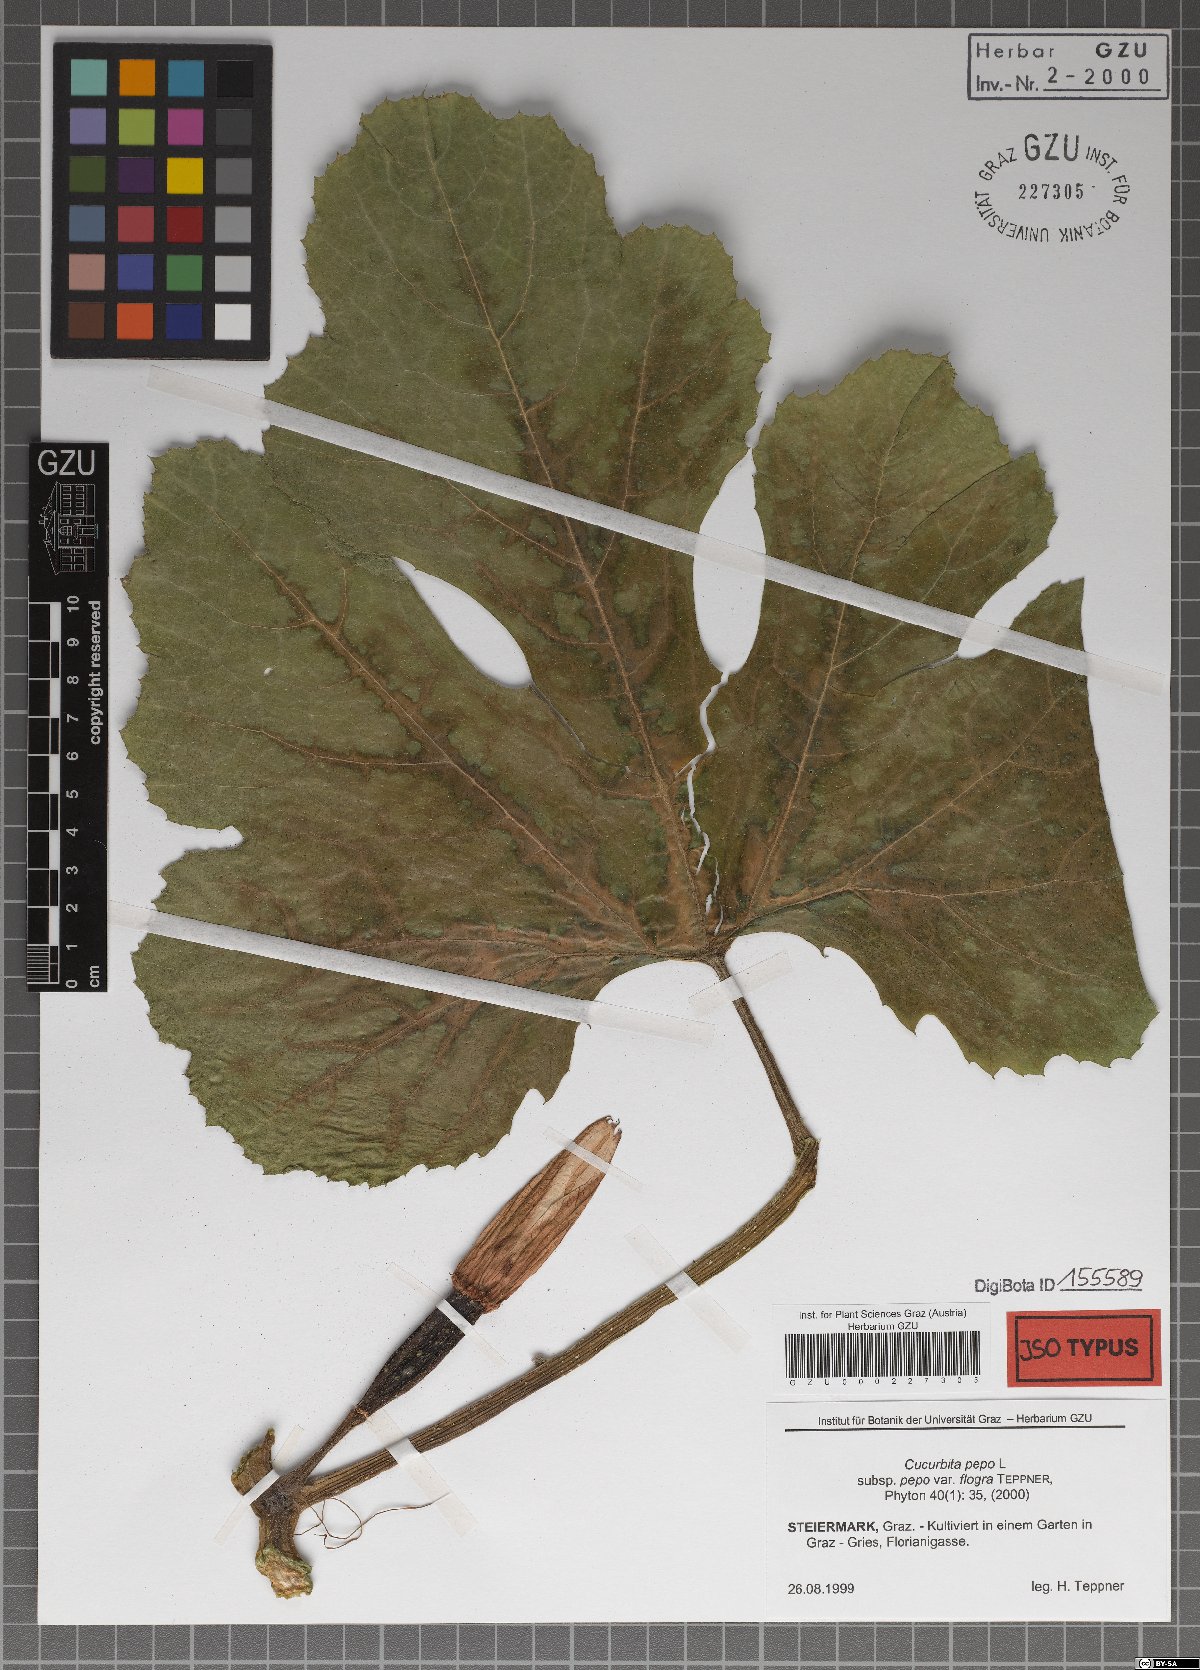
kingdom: Plantae
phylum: Tracheophyta
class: Magnoliopsida
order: Cucurbitales
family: Cucurbitaceae
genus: Cucurbita
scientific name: Cucurbita pepo
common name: Marrow
